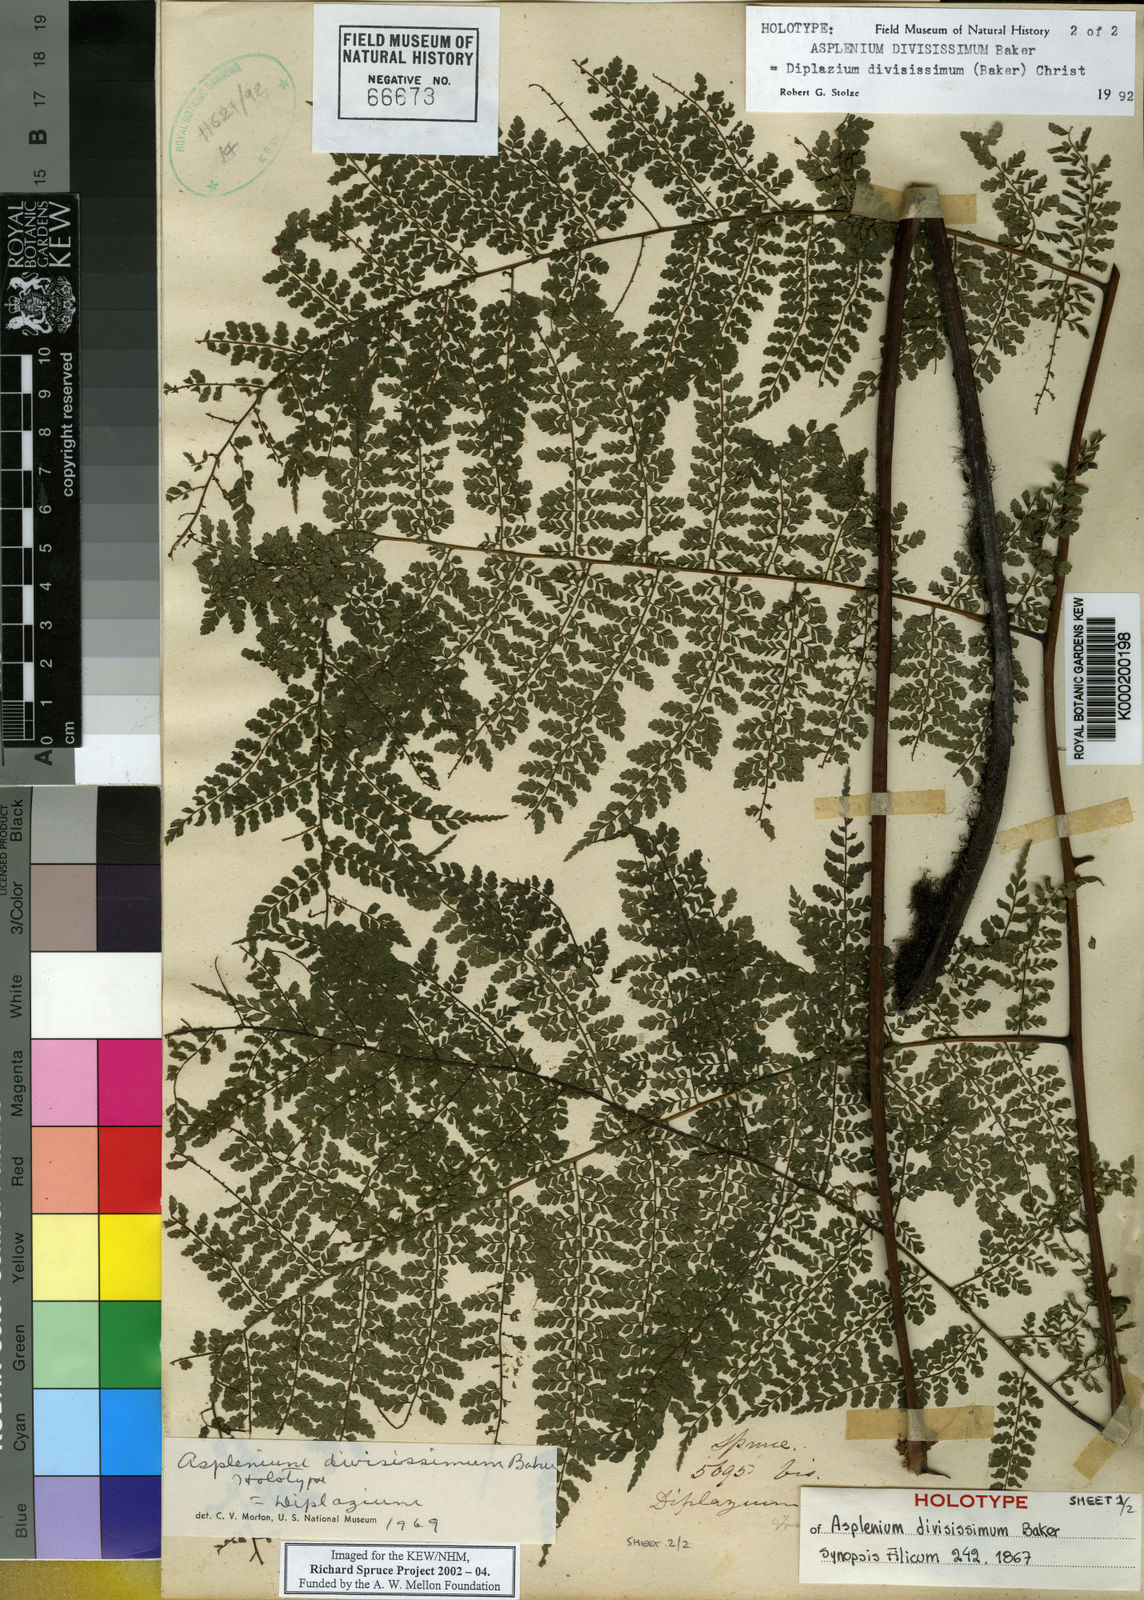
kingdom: Plantae
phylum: Tracheophyta
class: Polypodiopsida
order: Polypodiales
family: Athyriaceae
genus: Diplazium
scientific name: Diplazium divisissimum
